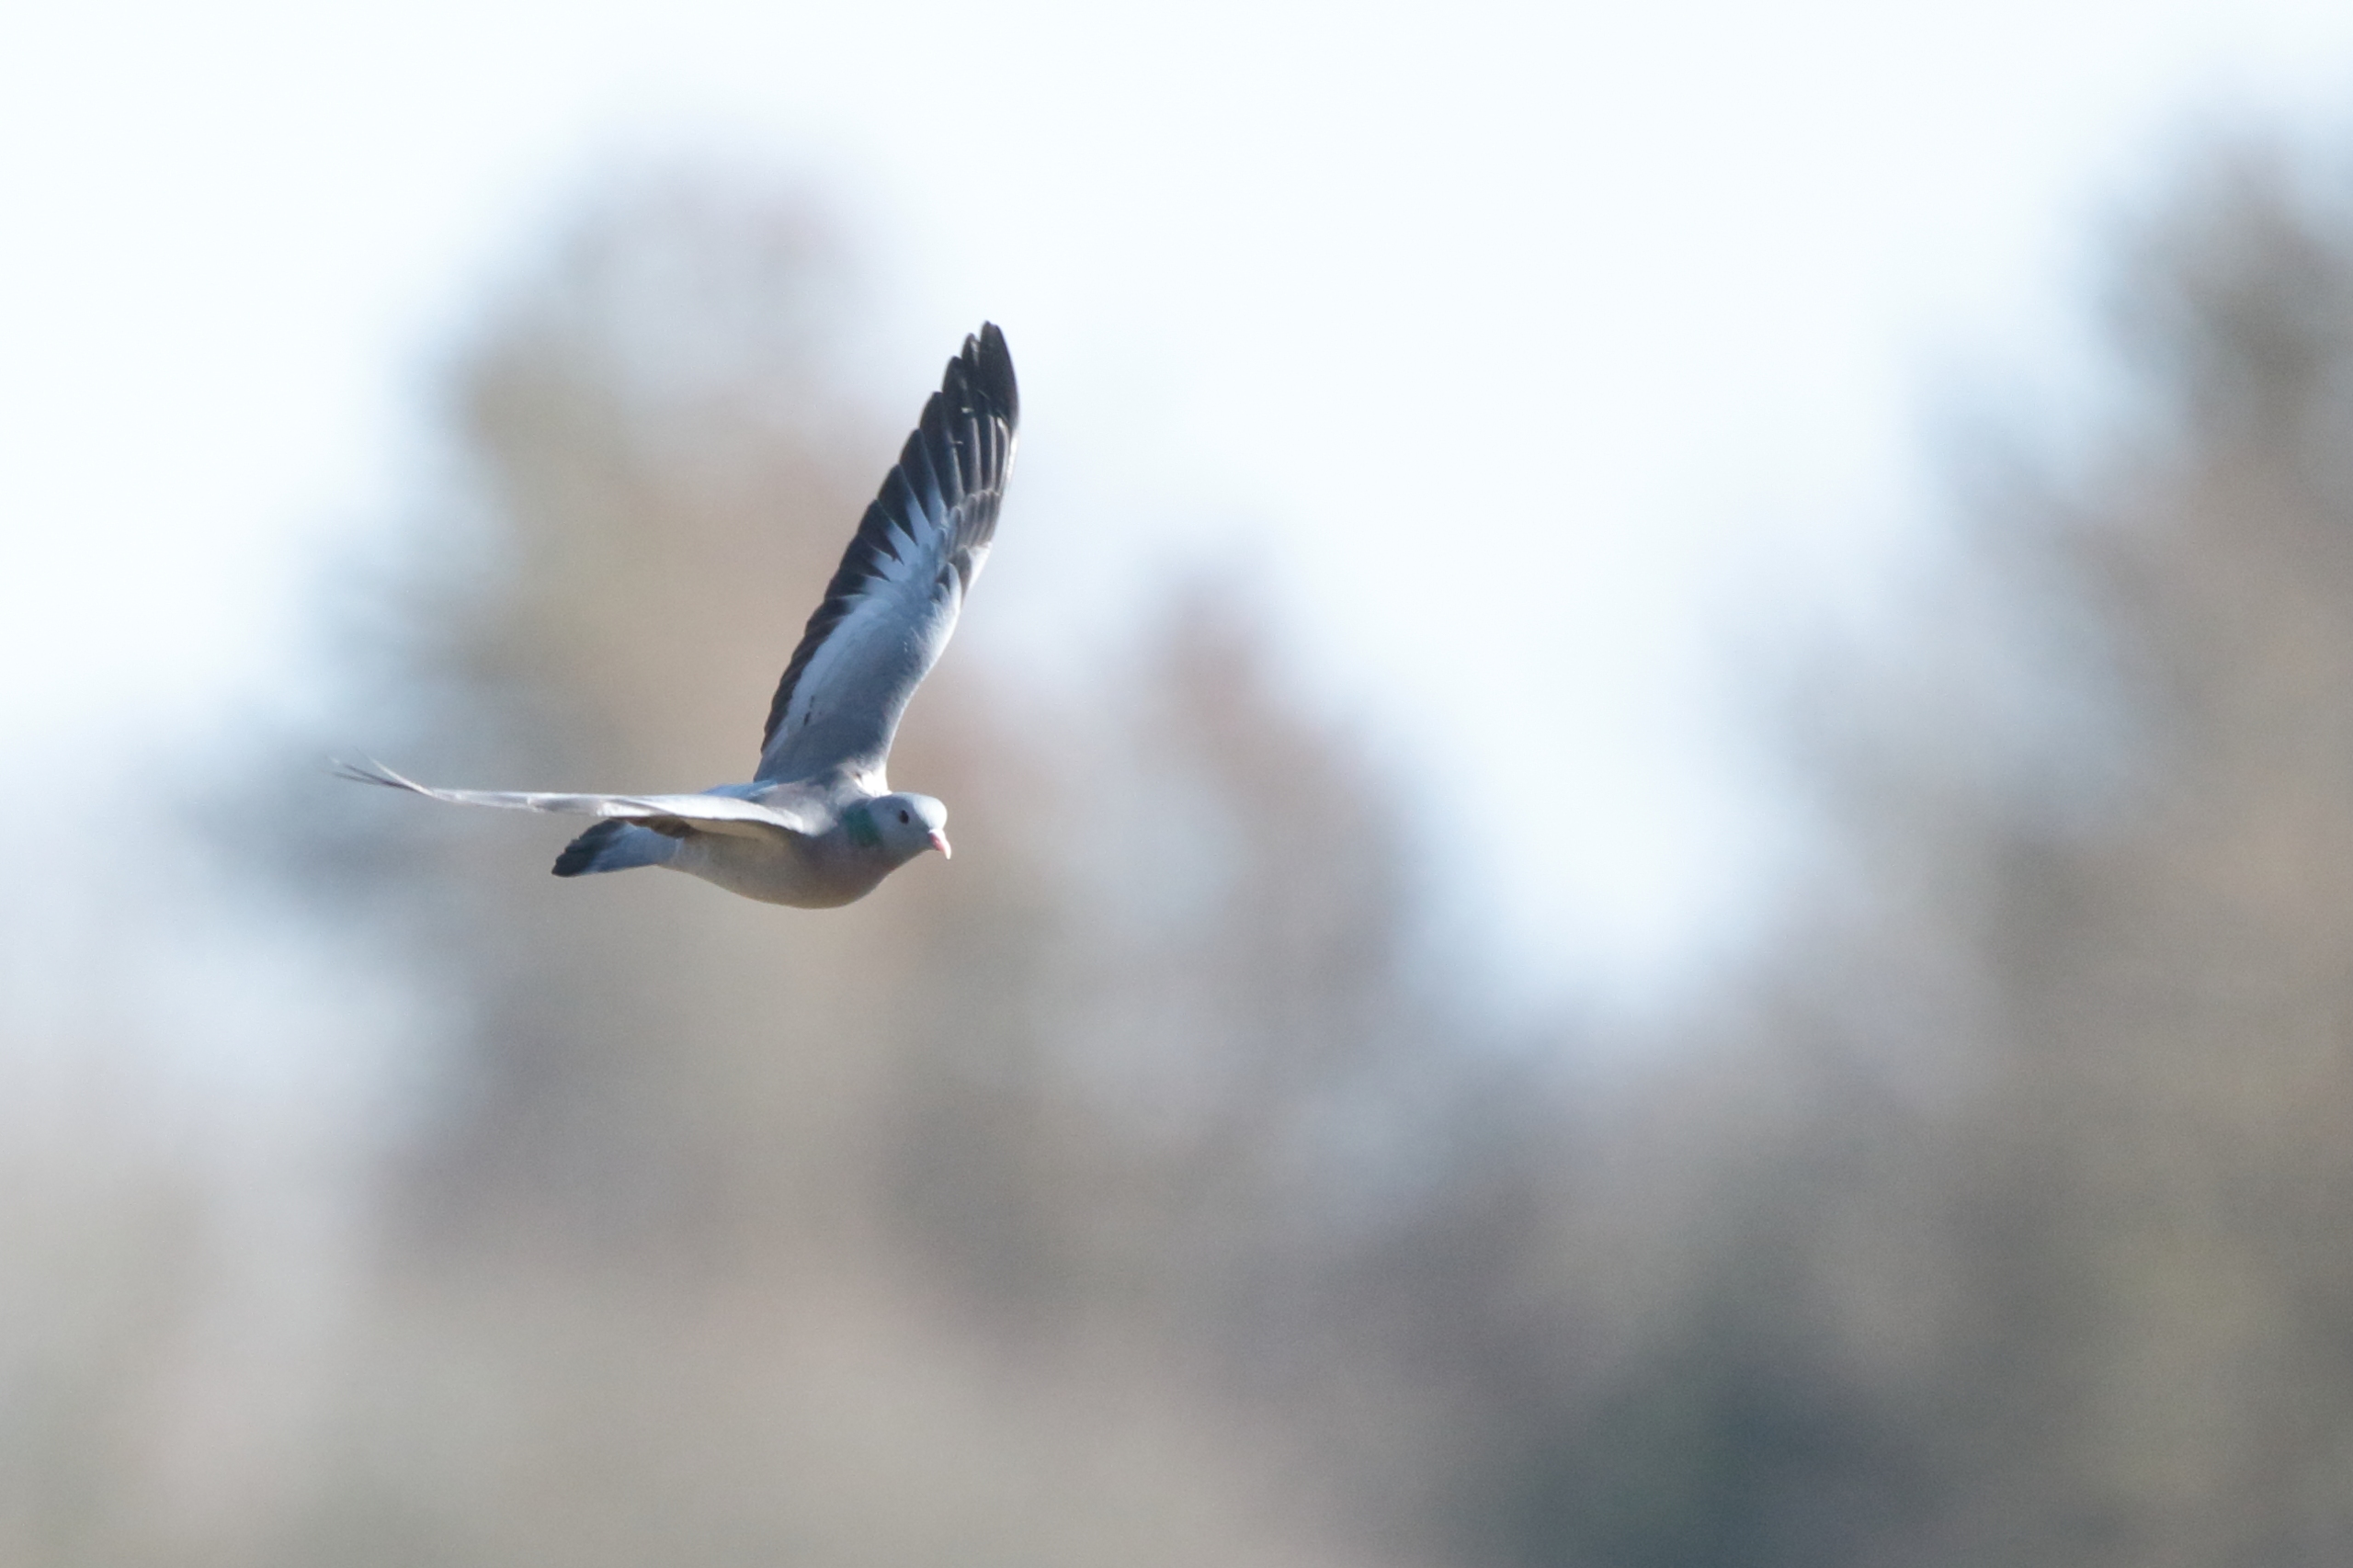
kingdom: Animalia
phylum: Chordata
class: Aves
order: Columbiformes
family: Columbidae
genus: Columba
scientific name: Columba oenas
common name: Huldue
